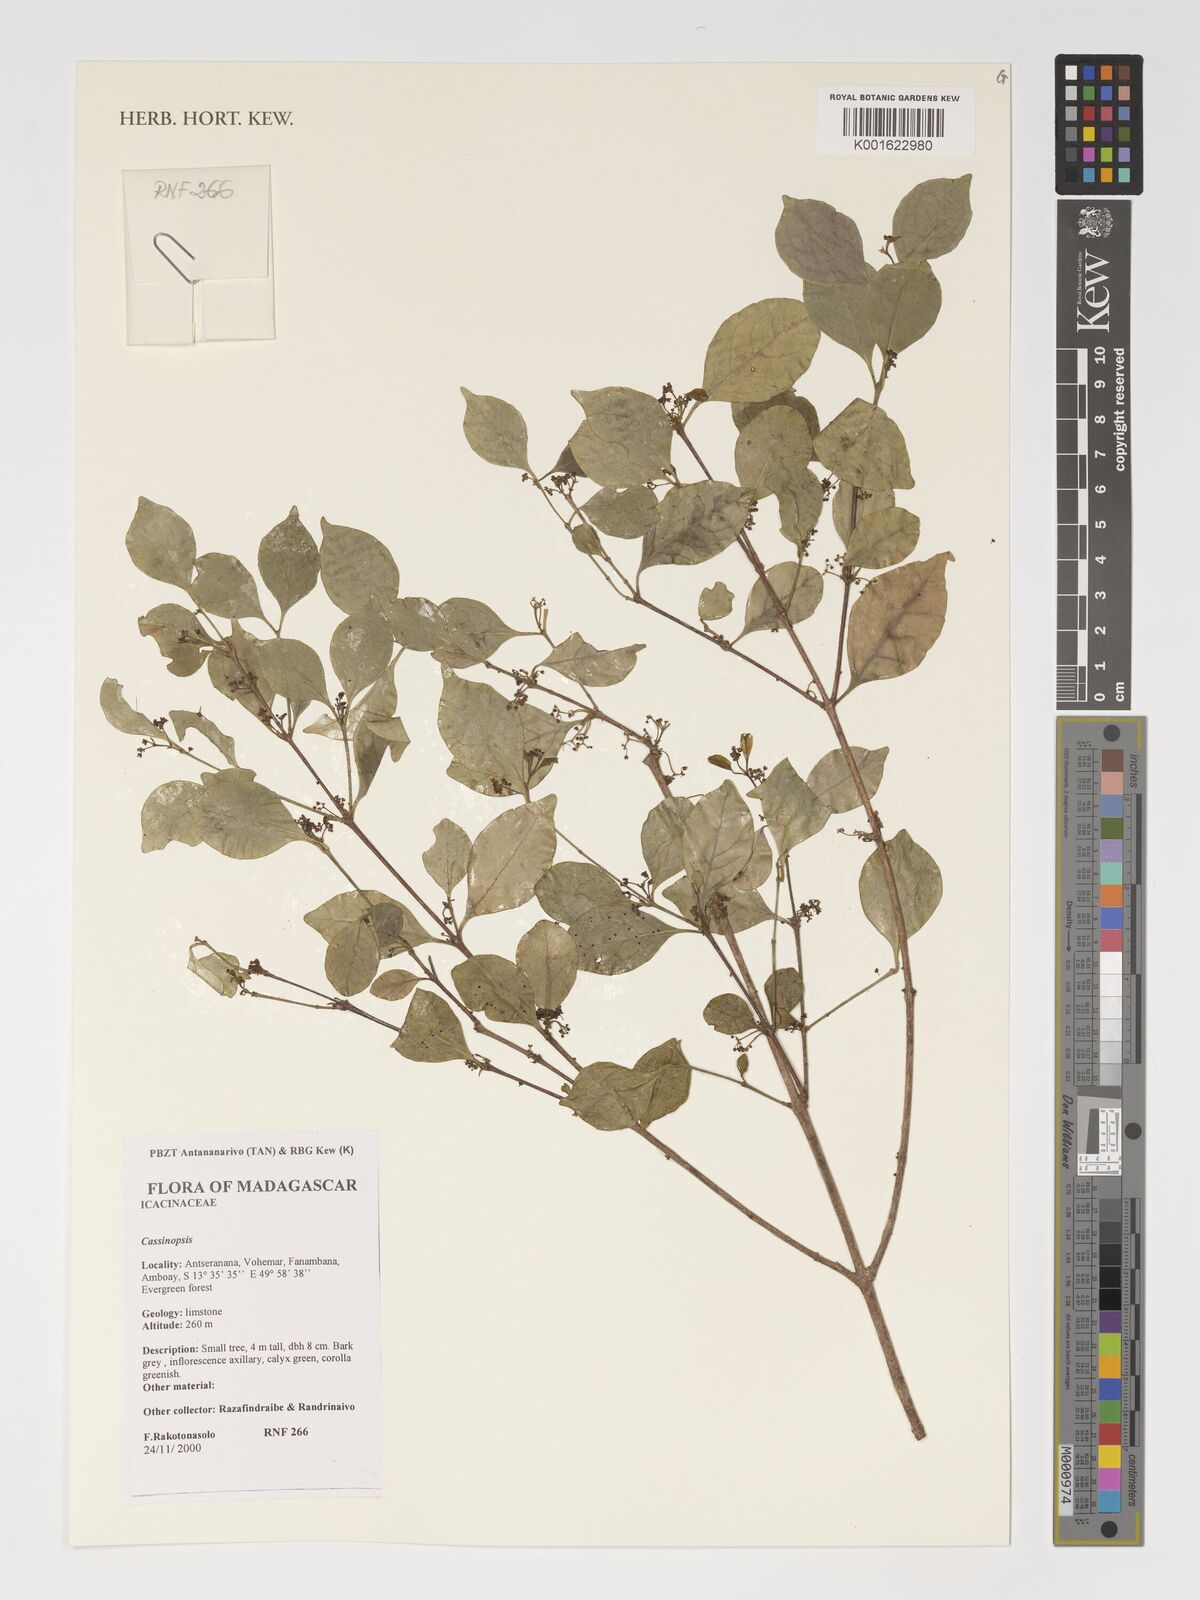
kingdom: Plantae
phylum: Tracheophyta
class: Magnoliopsida
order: Icacinales
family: Icacinaceae
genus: Cassinopsis
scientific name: Cassinopsis
